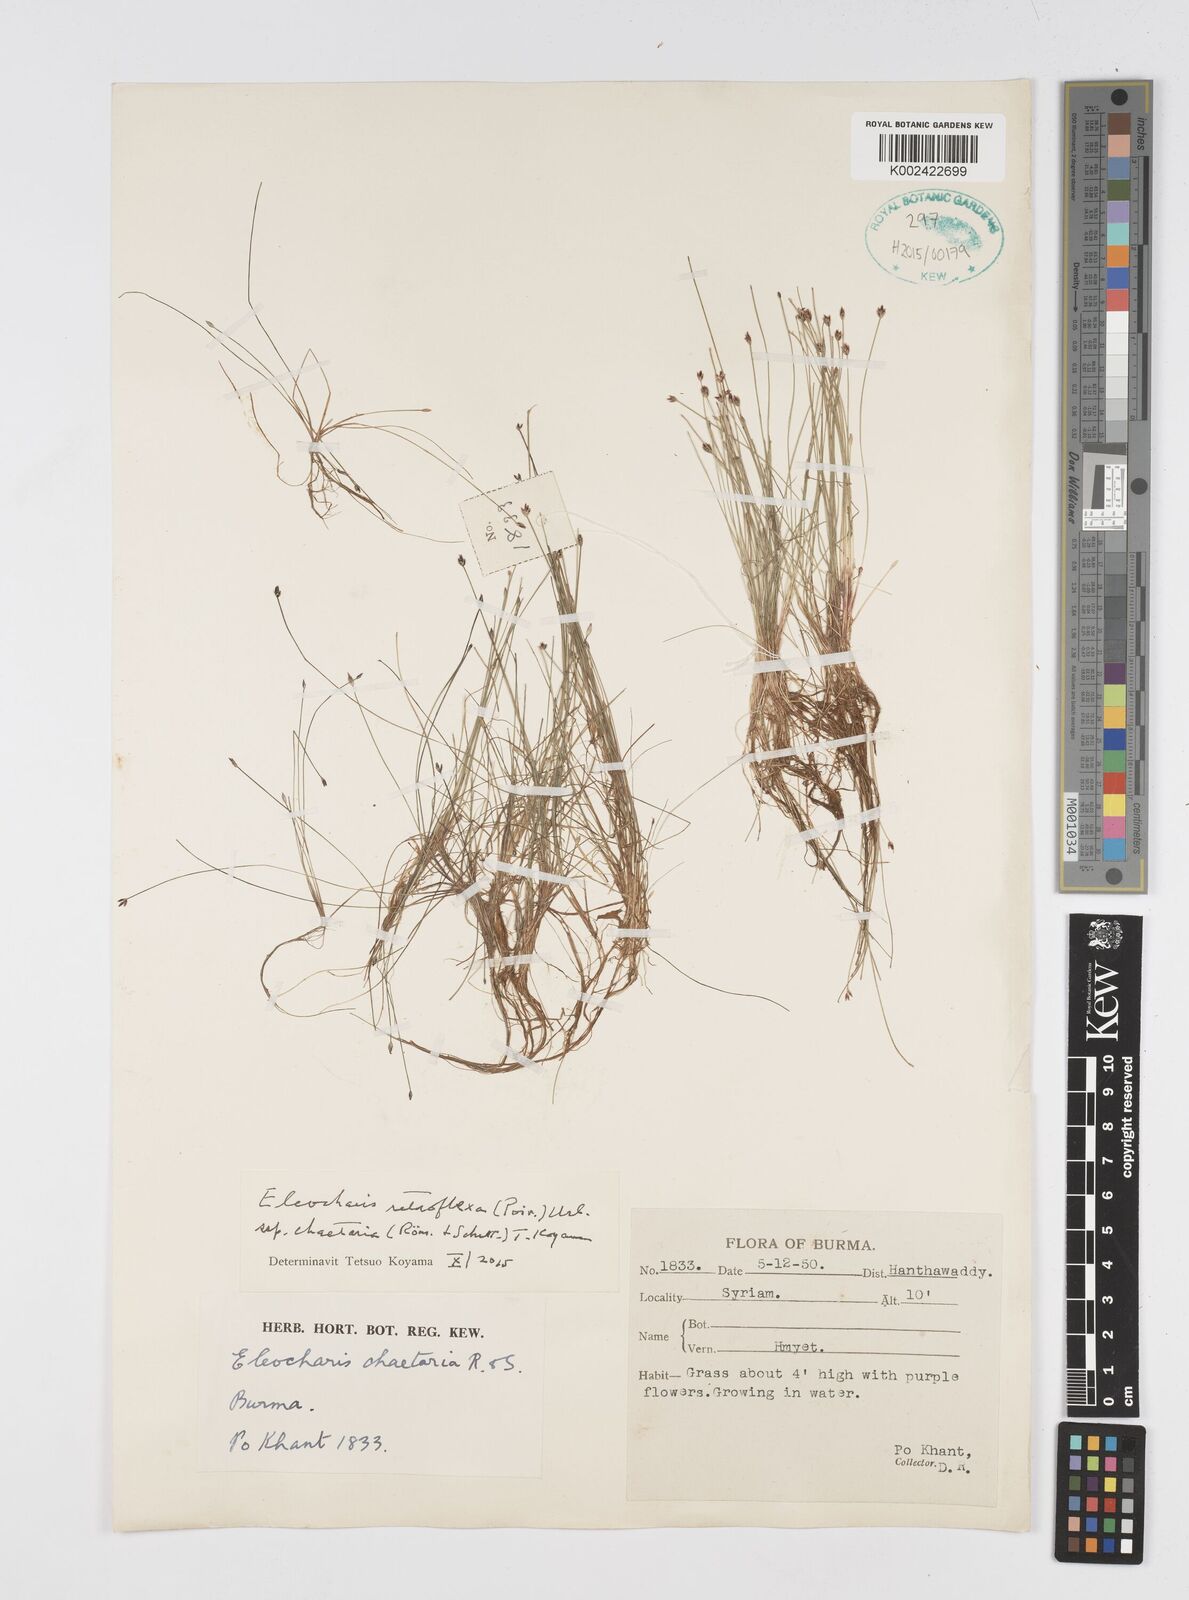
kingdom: Plantae
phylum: Tracheophyta
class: Liliopsida
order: Poales
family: Cyperaceae
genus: Eleocharis
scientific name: Eleocharis retroflexa
